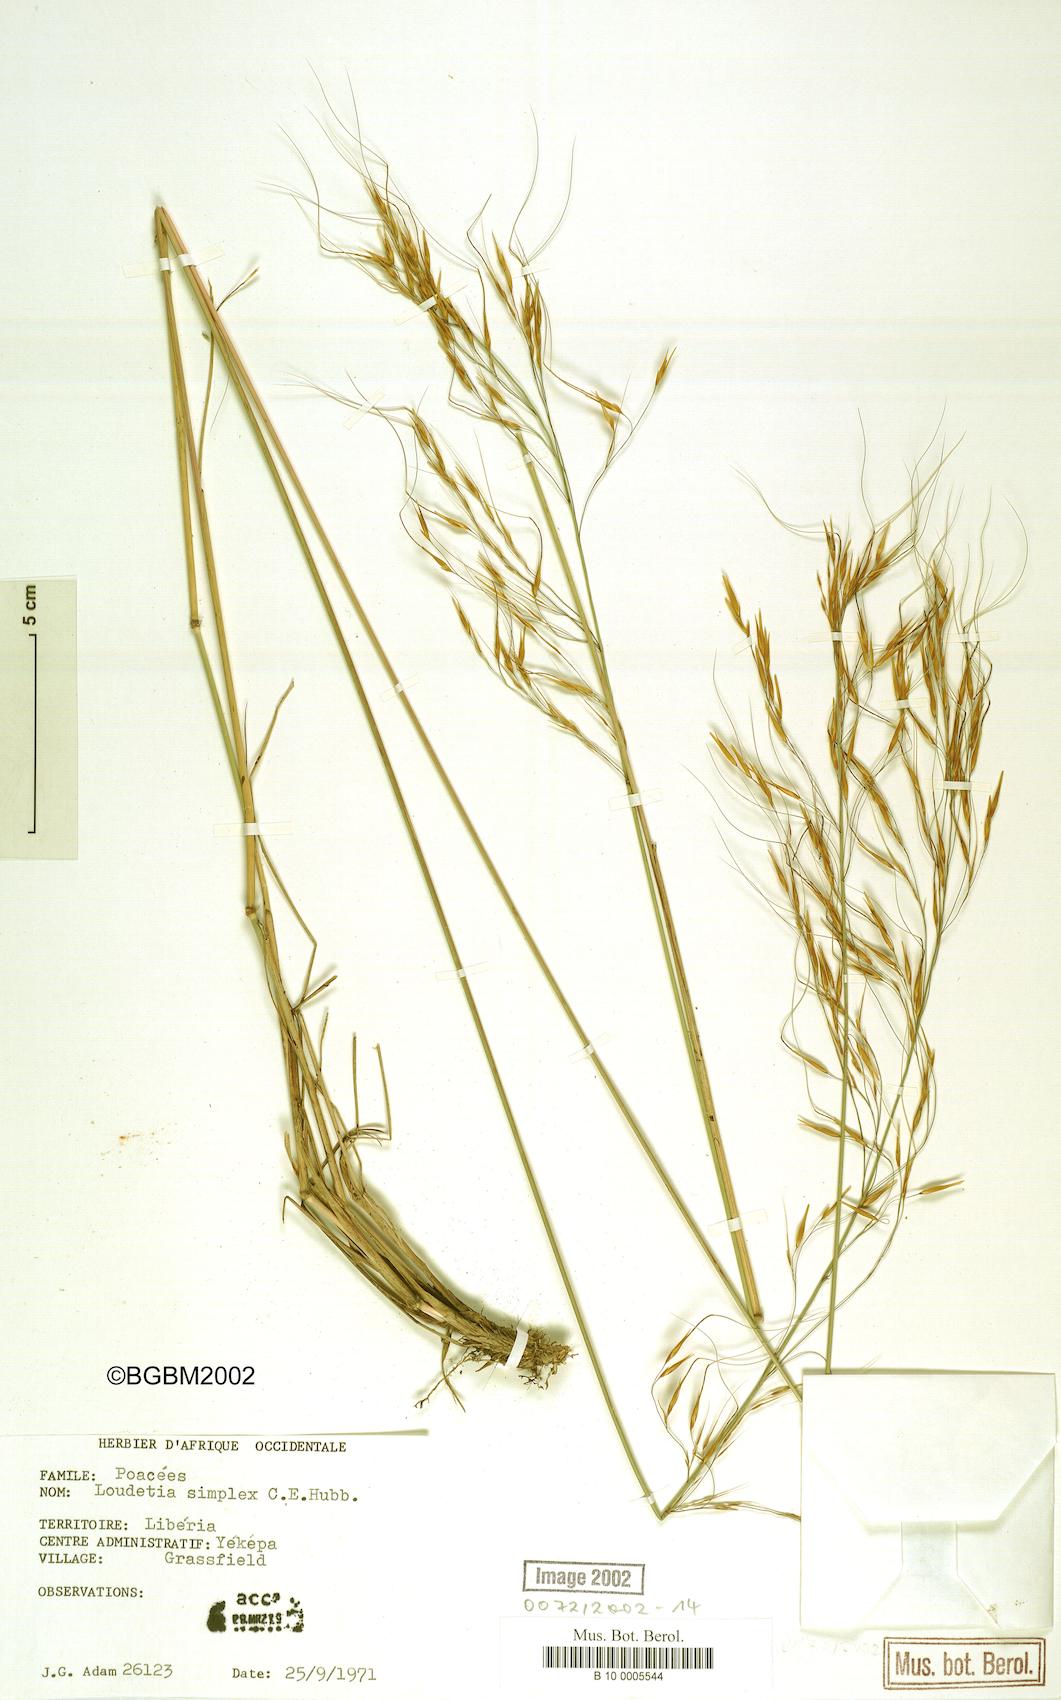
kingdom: Plantae
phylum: Tracheophyta
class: Liliopsida
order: Poales
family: Poaceae
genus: Loudetia
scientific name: Loudetia simplex
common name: Common russet grass
